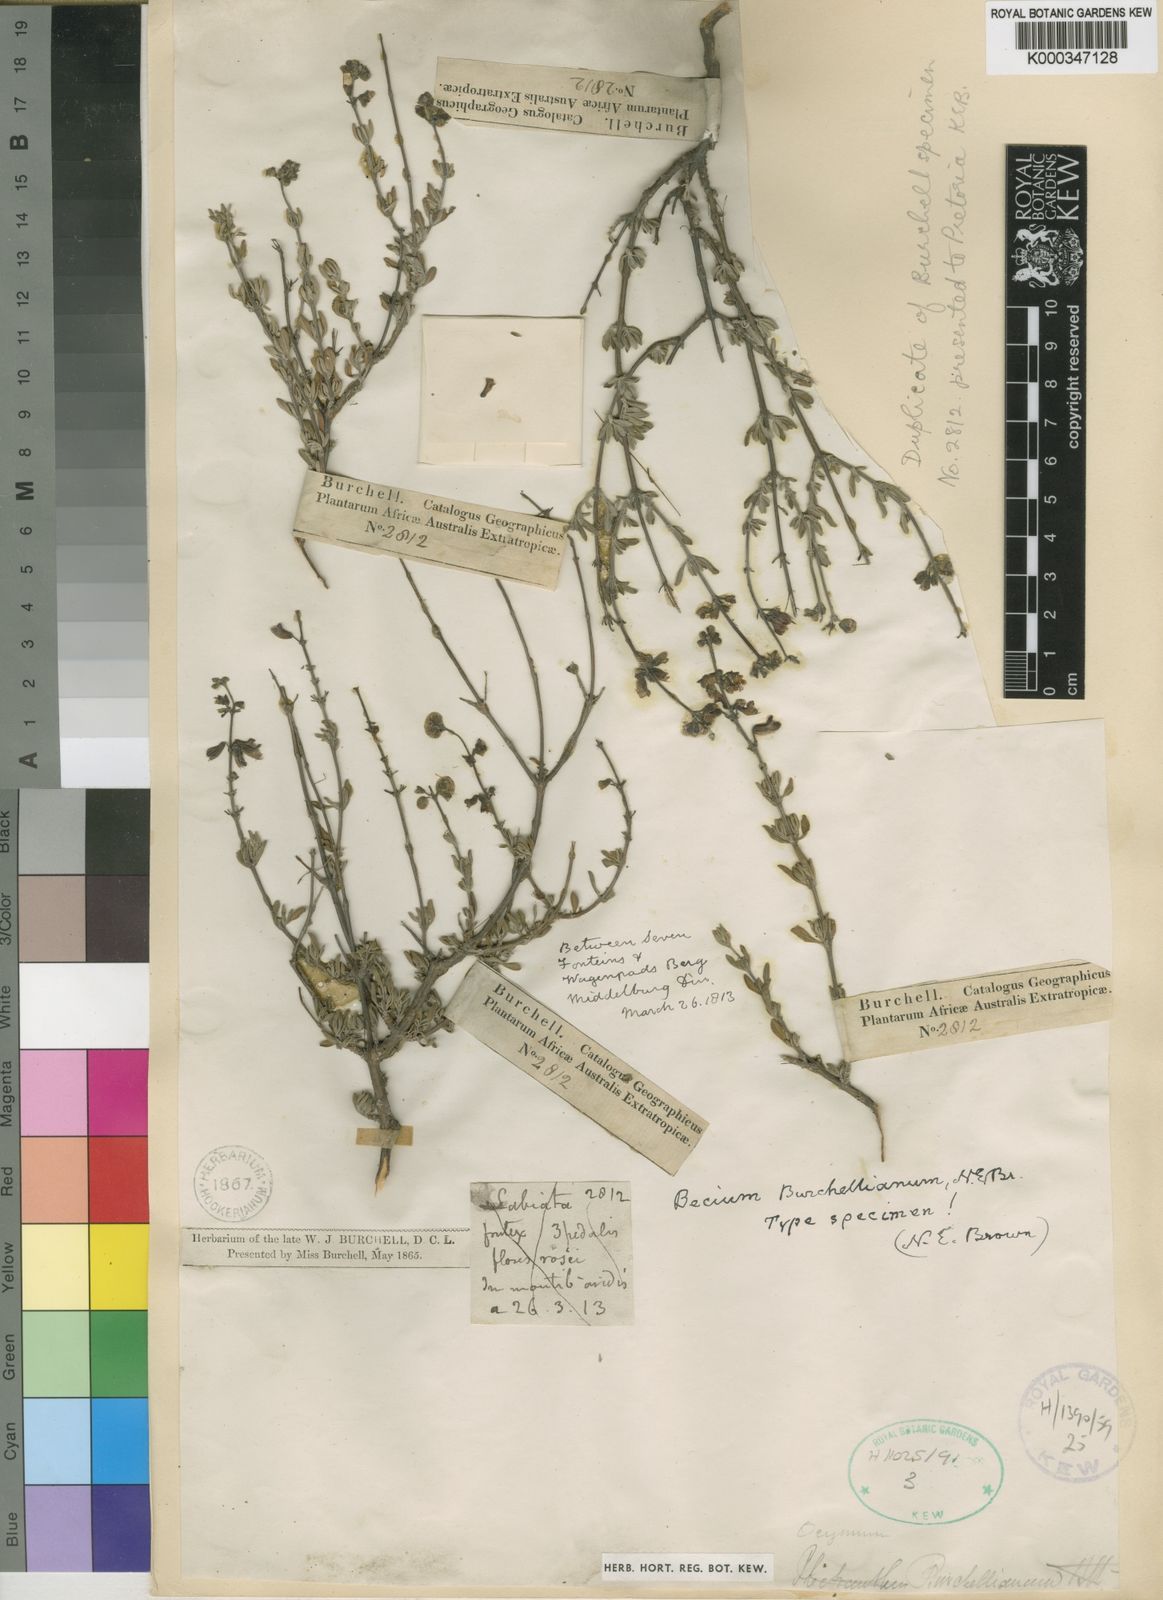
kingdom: Plantae
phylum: Tracheophyta
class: Magnoliopsida
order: Lamiales
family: Lamiaceae
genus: Ocimum
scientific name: Ocimum burchellianum
